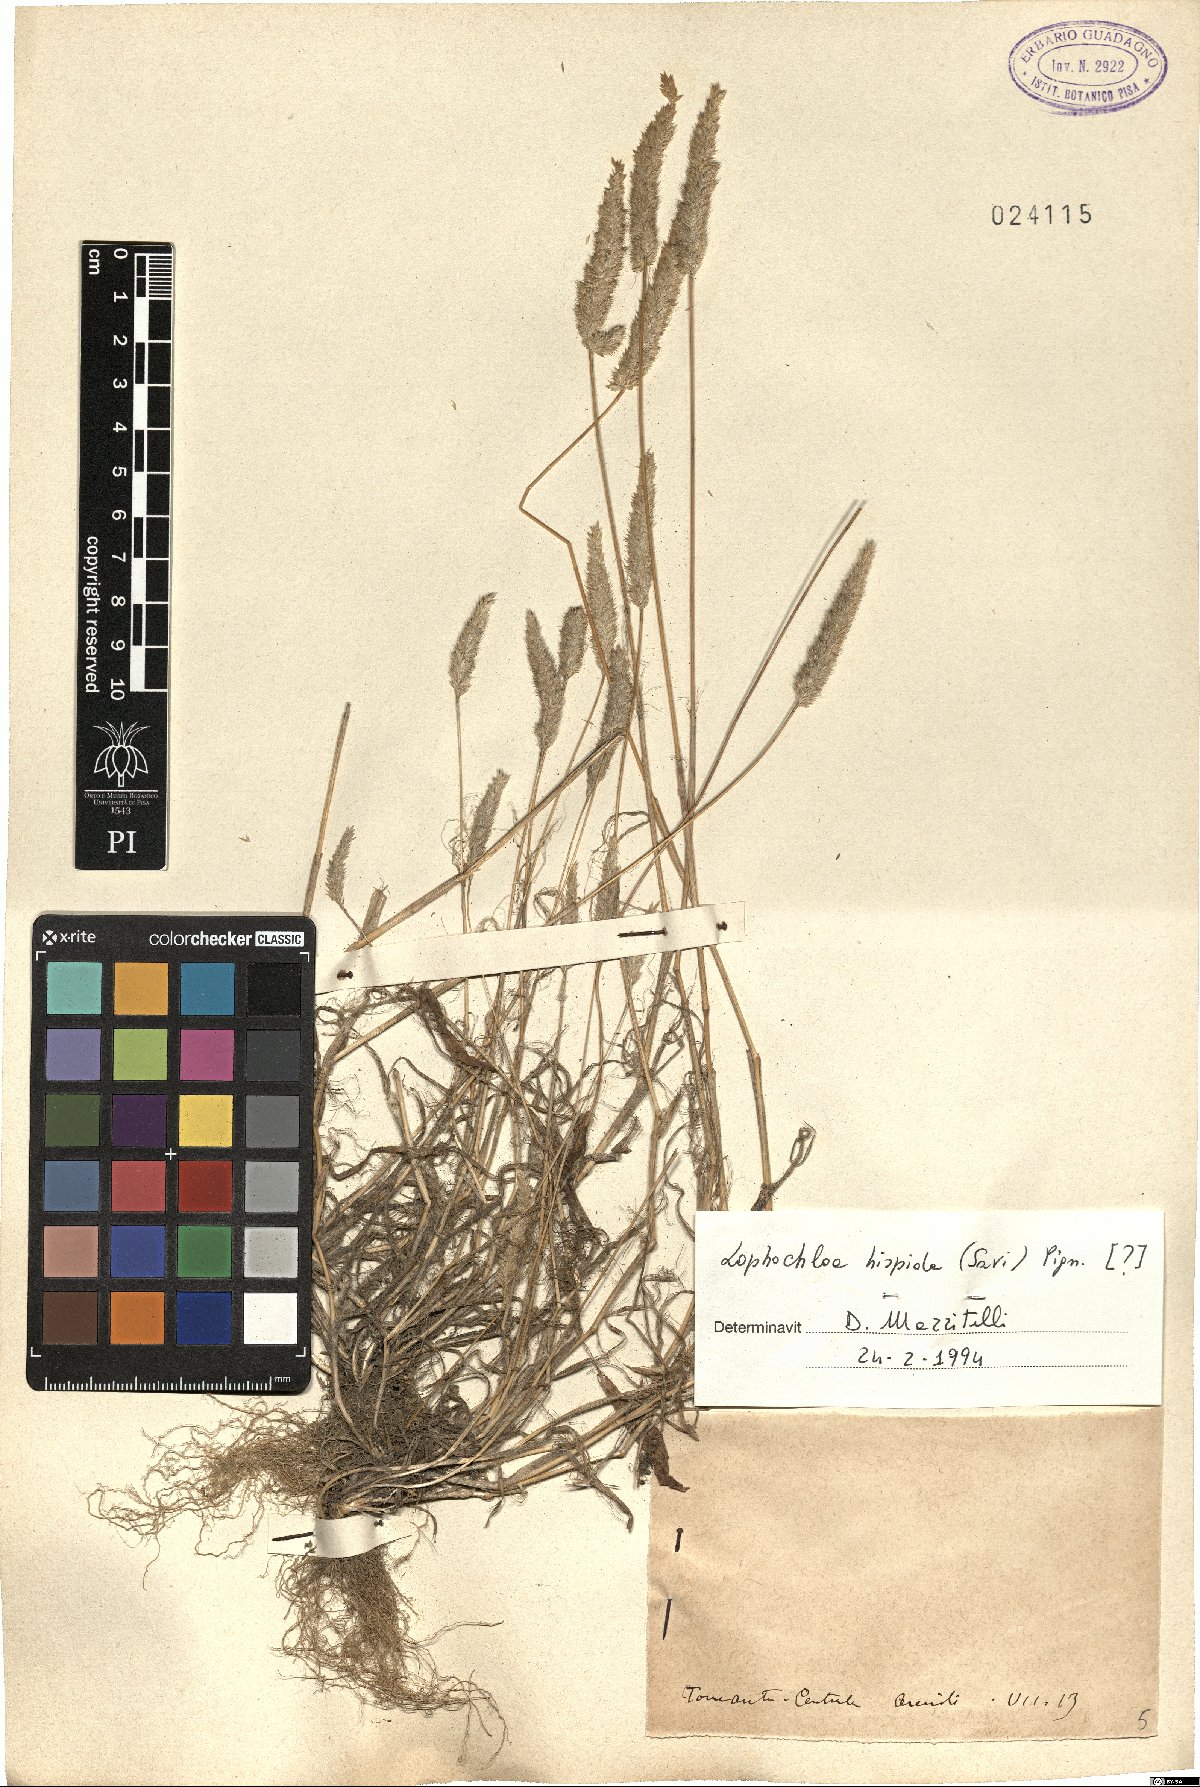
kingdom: Plantae
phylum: Tracheophyta
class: Liliopsida
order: Poales
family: Poaceae
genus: Rostraria
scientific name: Rostraria hispida
